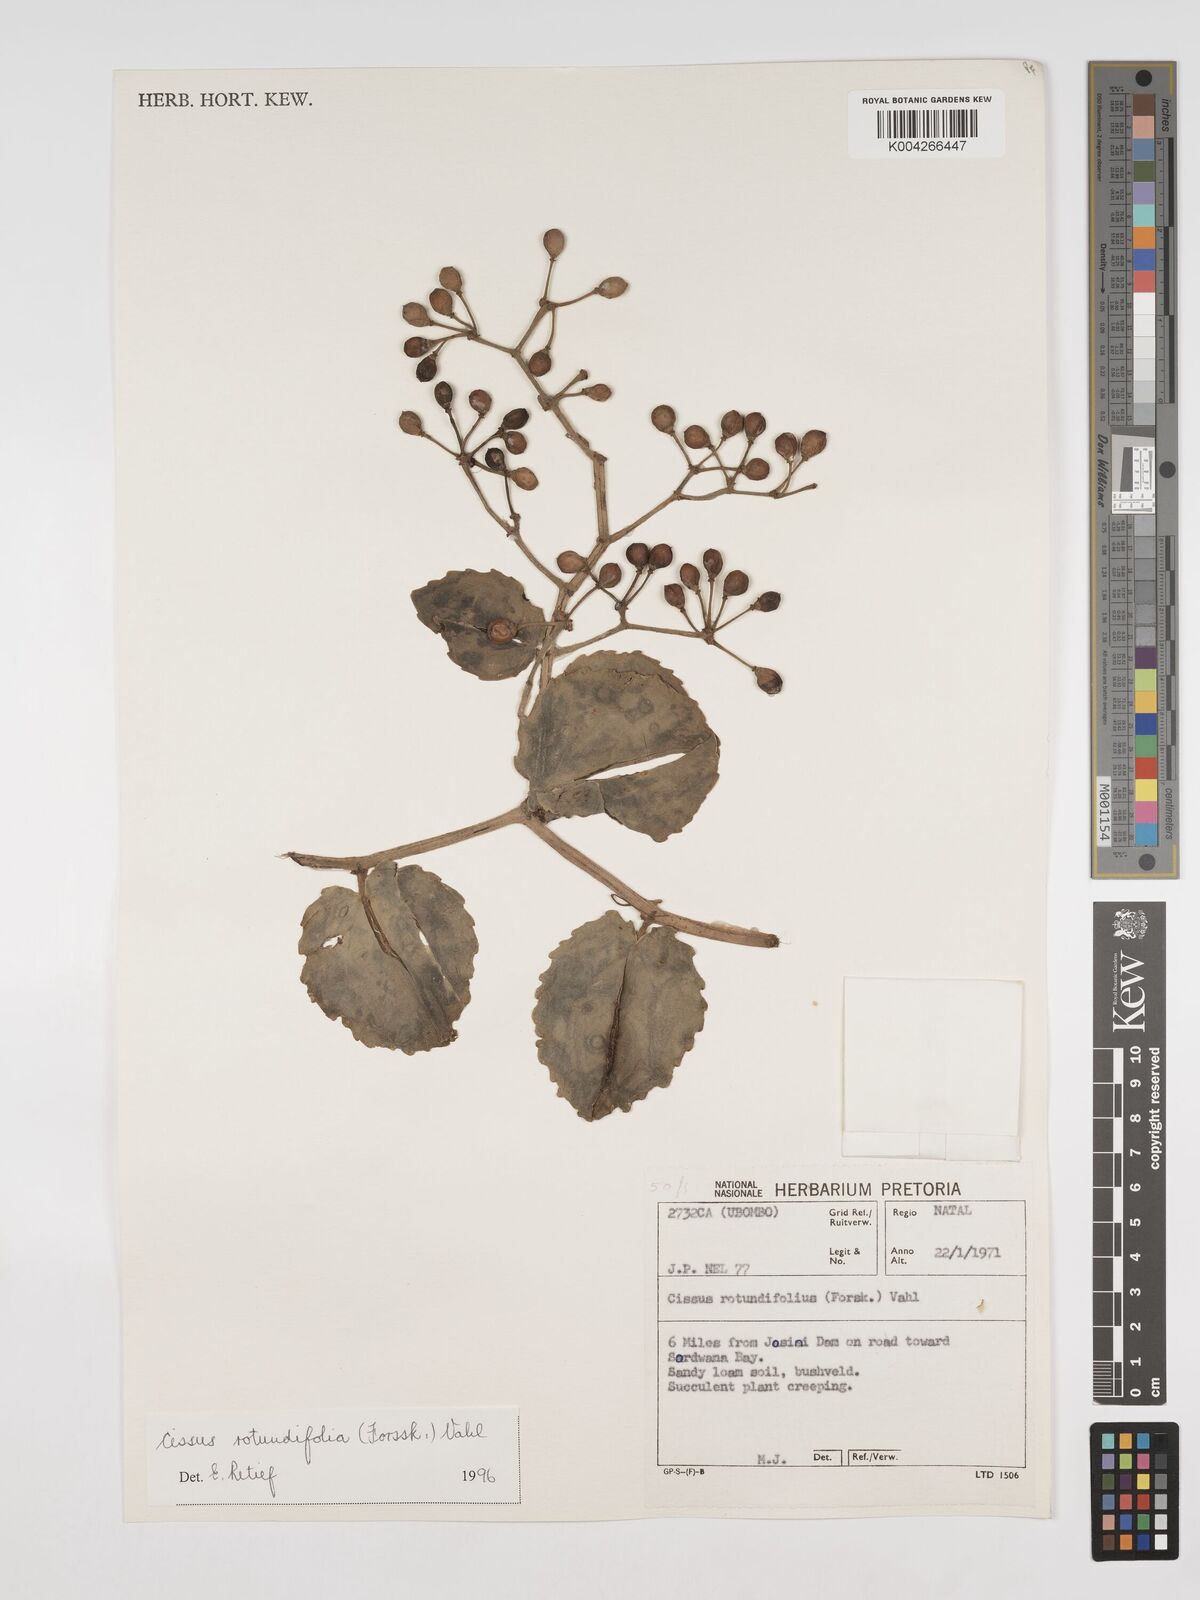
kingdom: Plantae
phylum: Tracheophyta
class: Magnoliopsida
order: Vitales
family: Vitaceae
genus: Cissus
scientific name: Cissus
